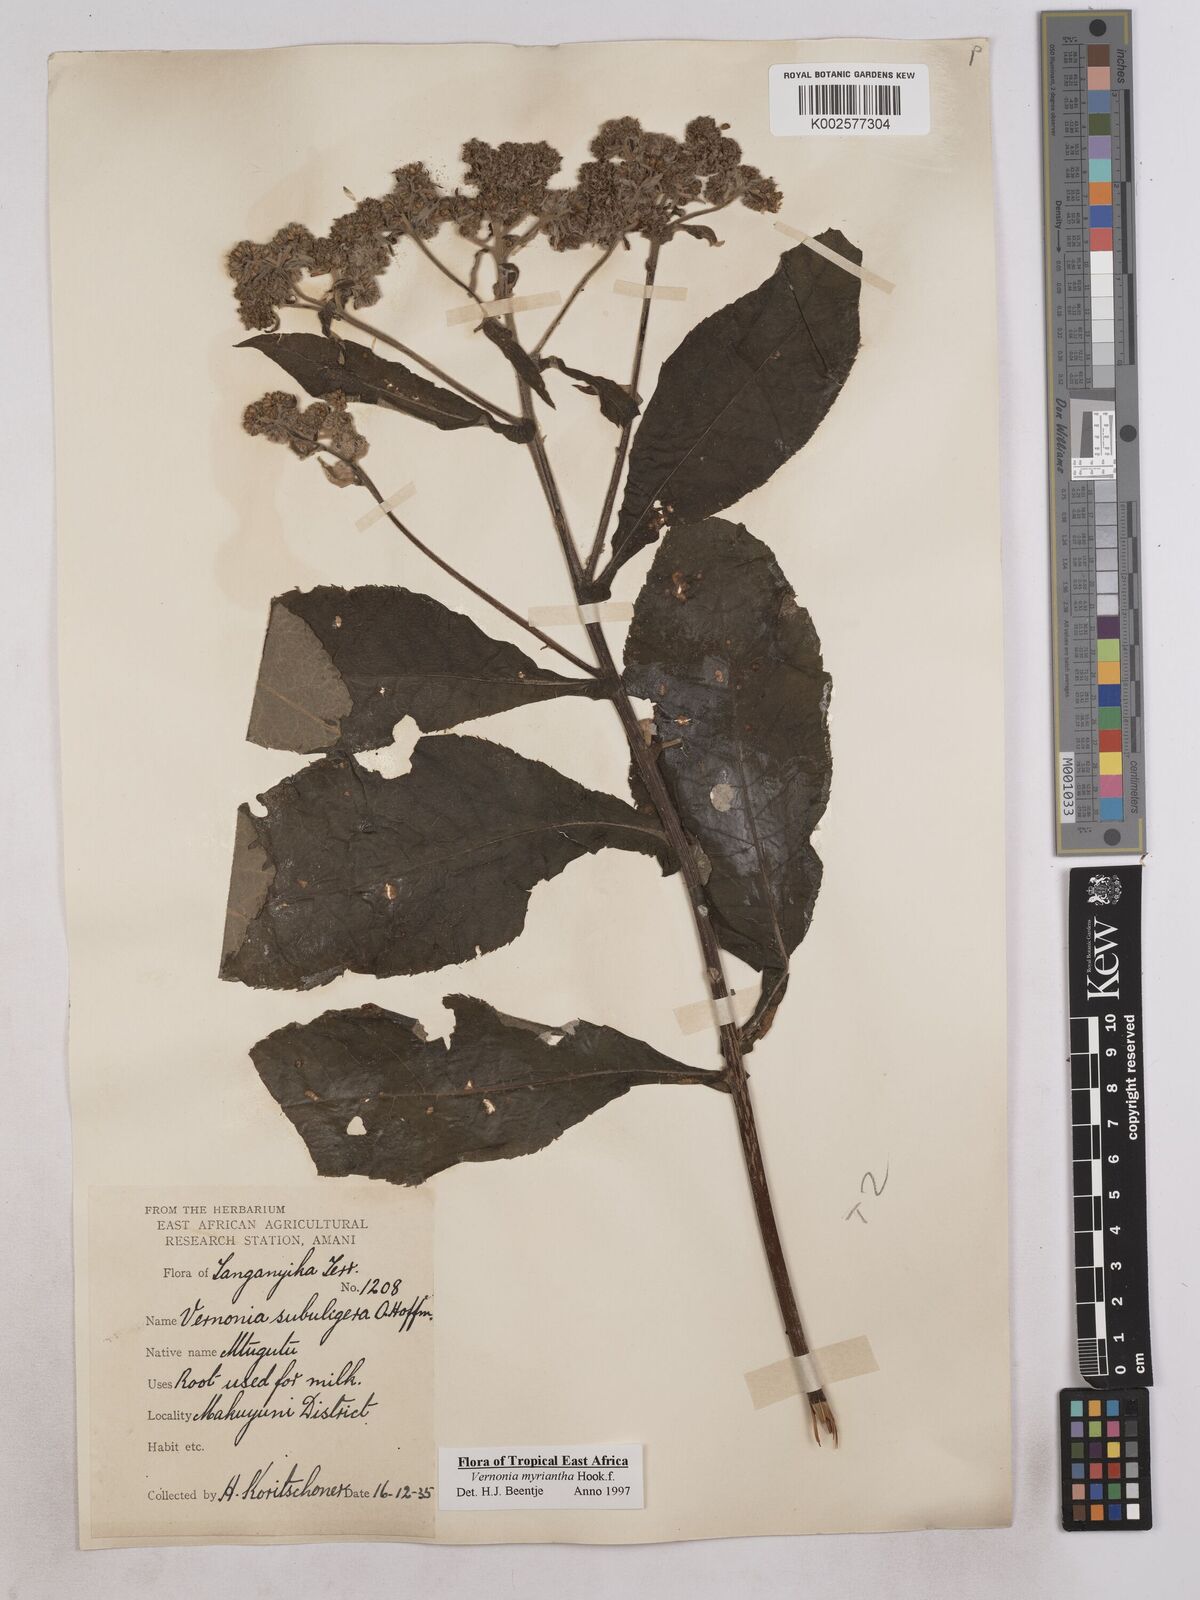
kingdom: Plantae
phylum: Tracheophyta
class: Magnoliopsida
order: Asterales
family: Asteraceae
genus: Gymnanthemum
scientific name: Gymnanthemum myrianthum
